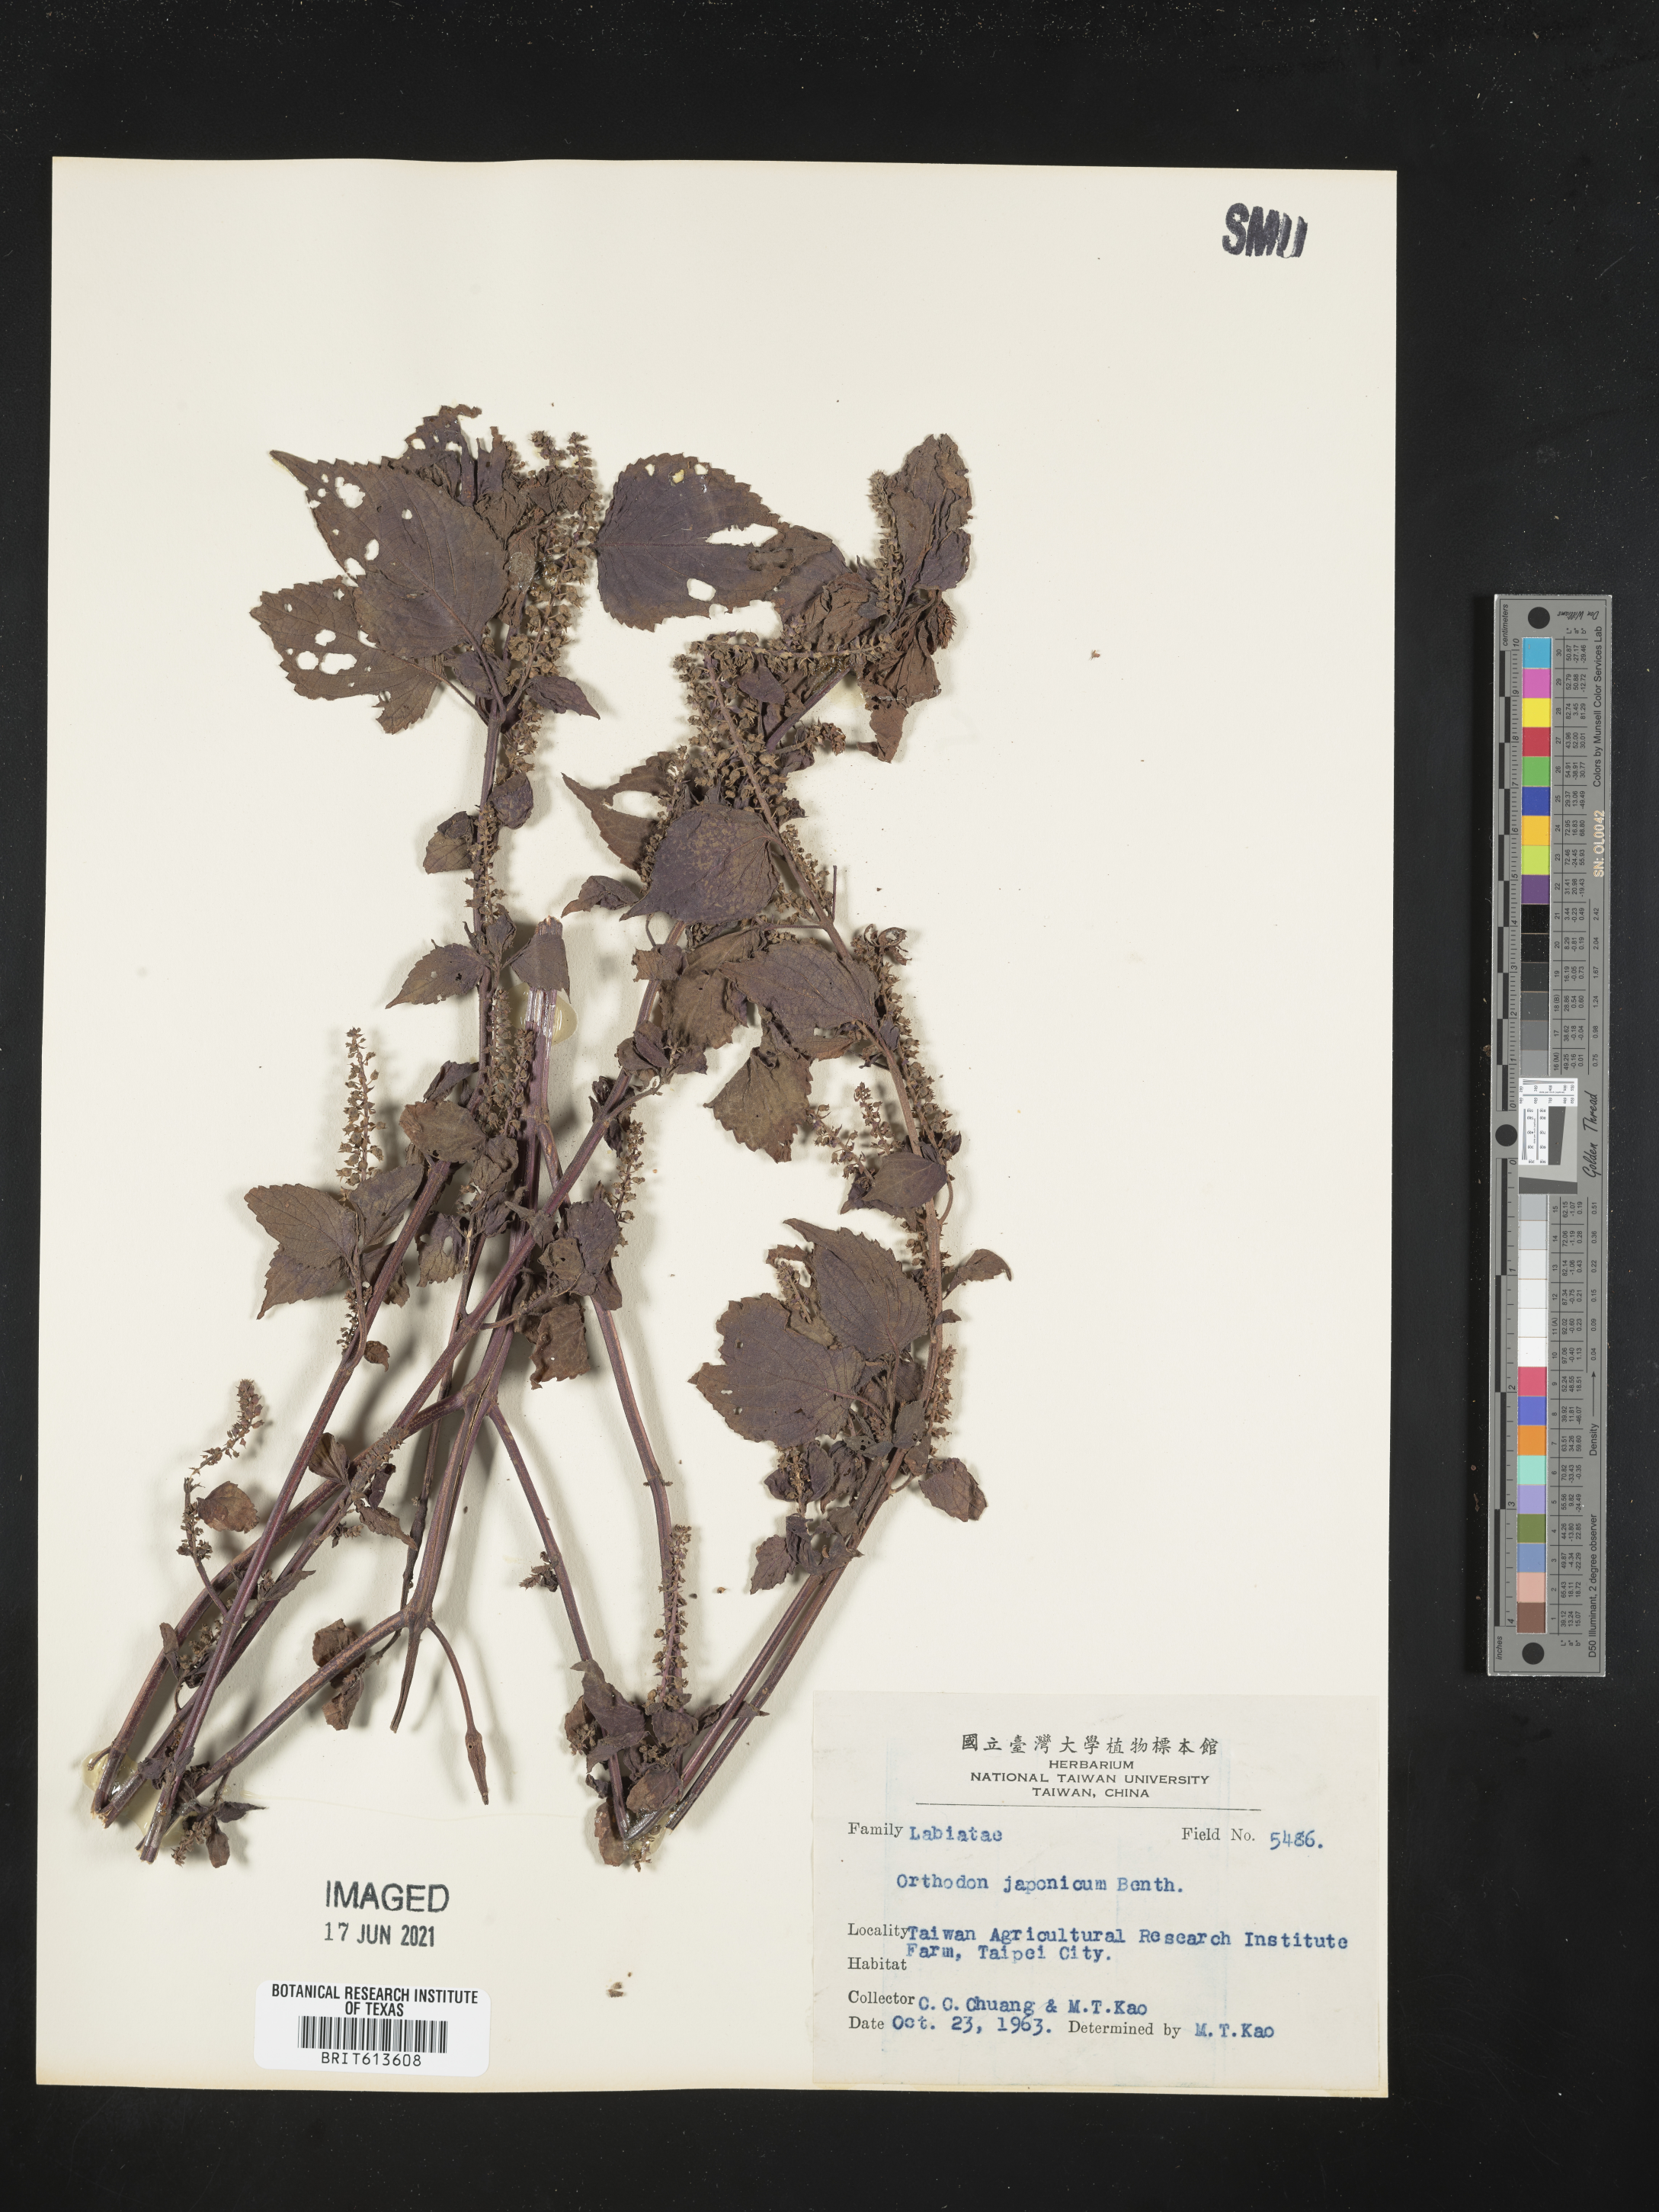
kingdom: Plantae
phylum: Tracheophyta
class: Magnoliopsida
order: Lamiales
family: Lamiaceae
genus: Mosla
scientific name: Mosla japonica
